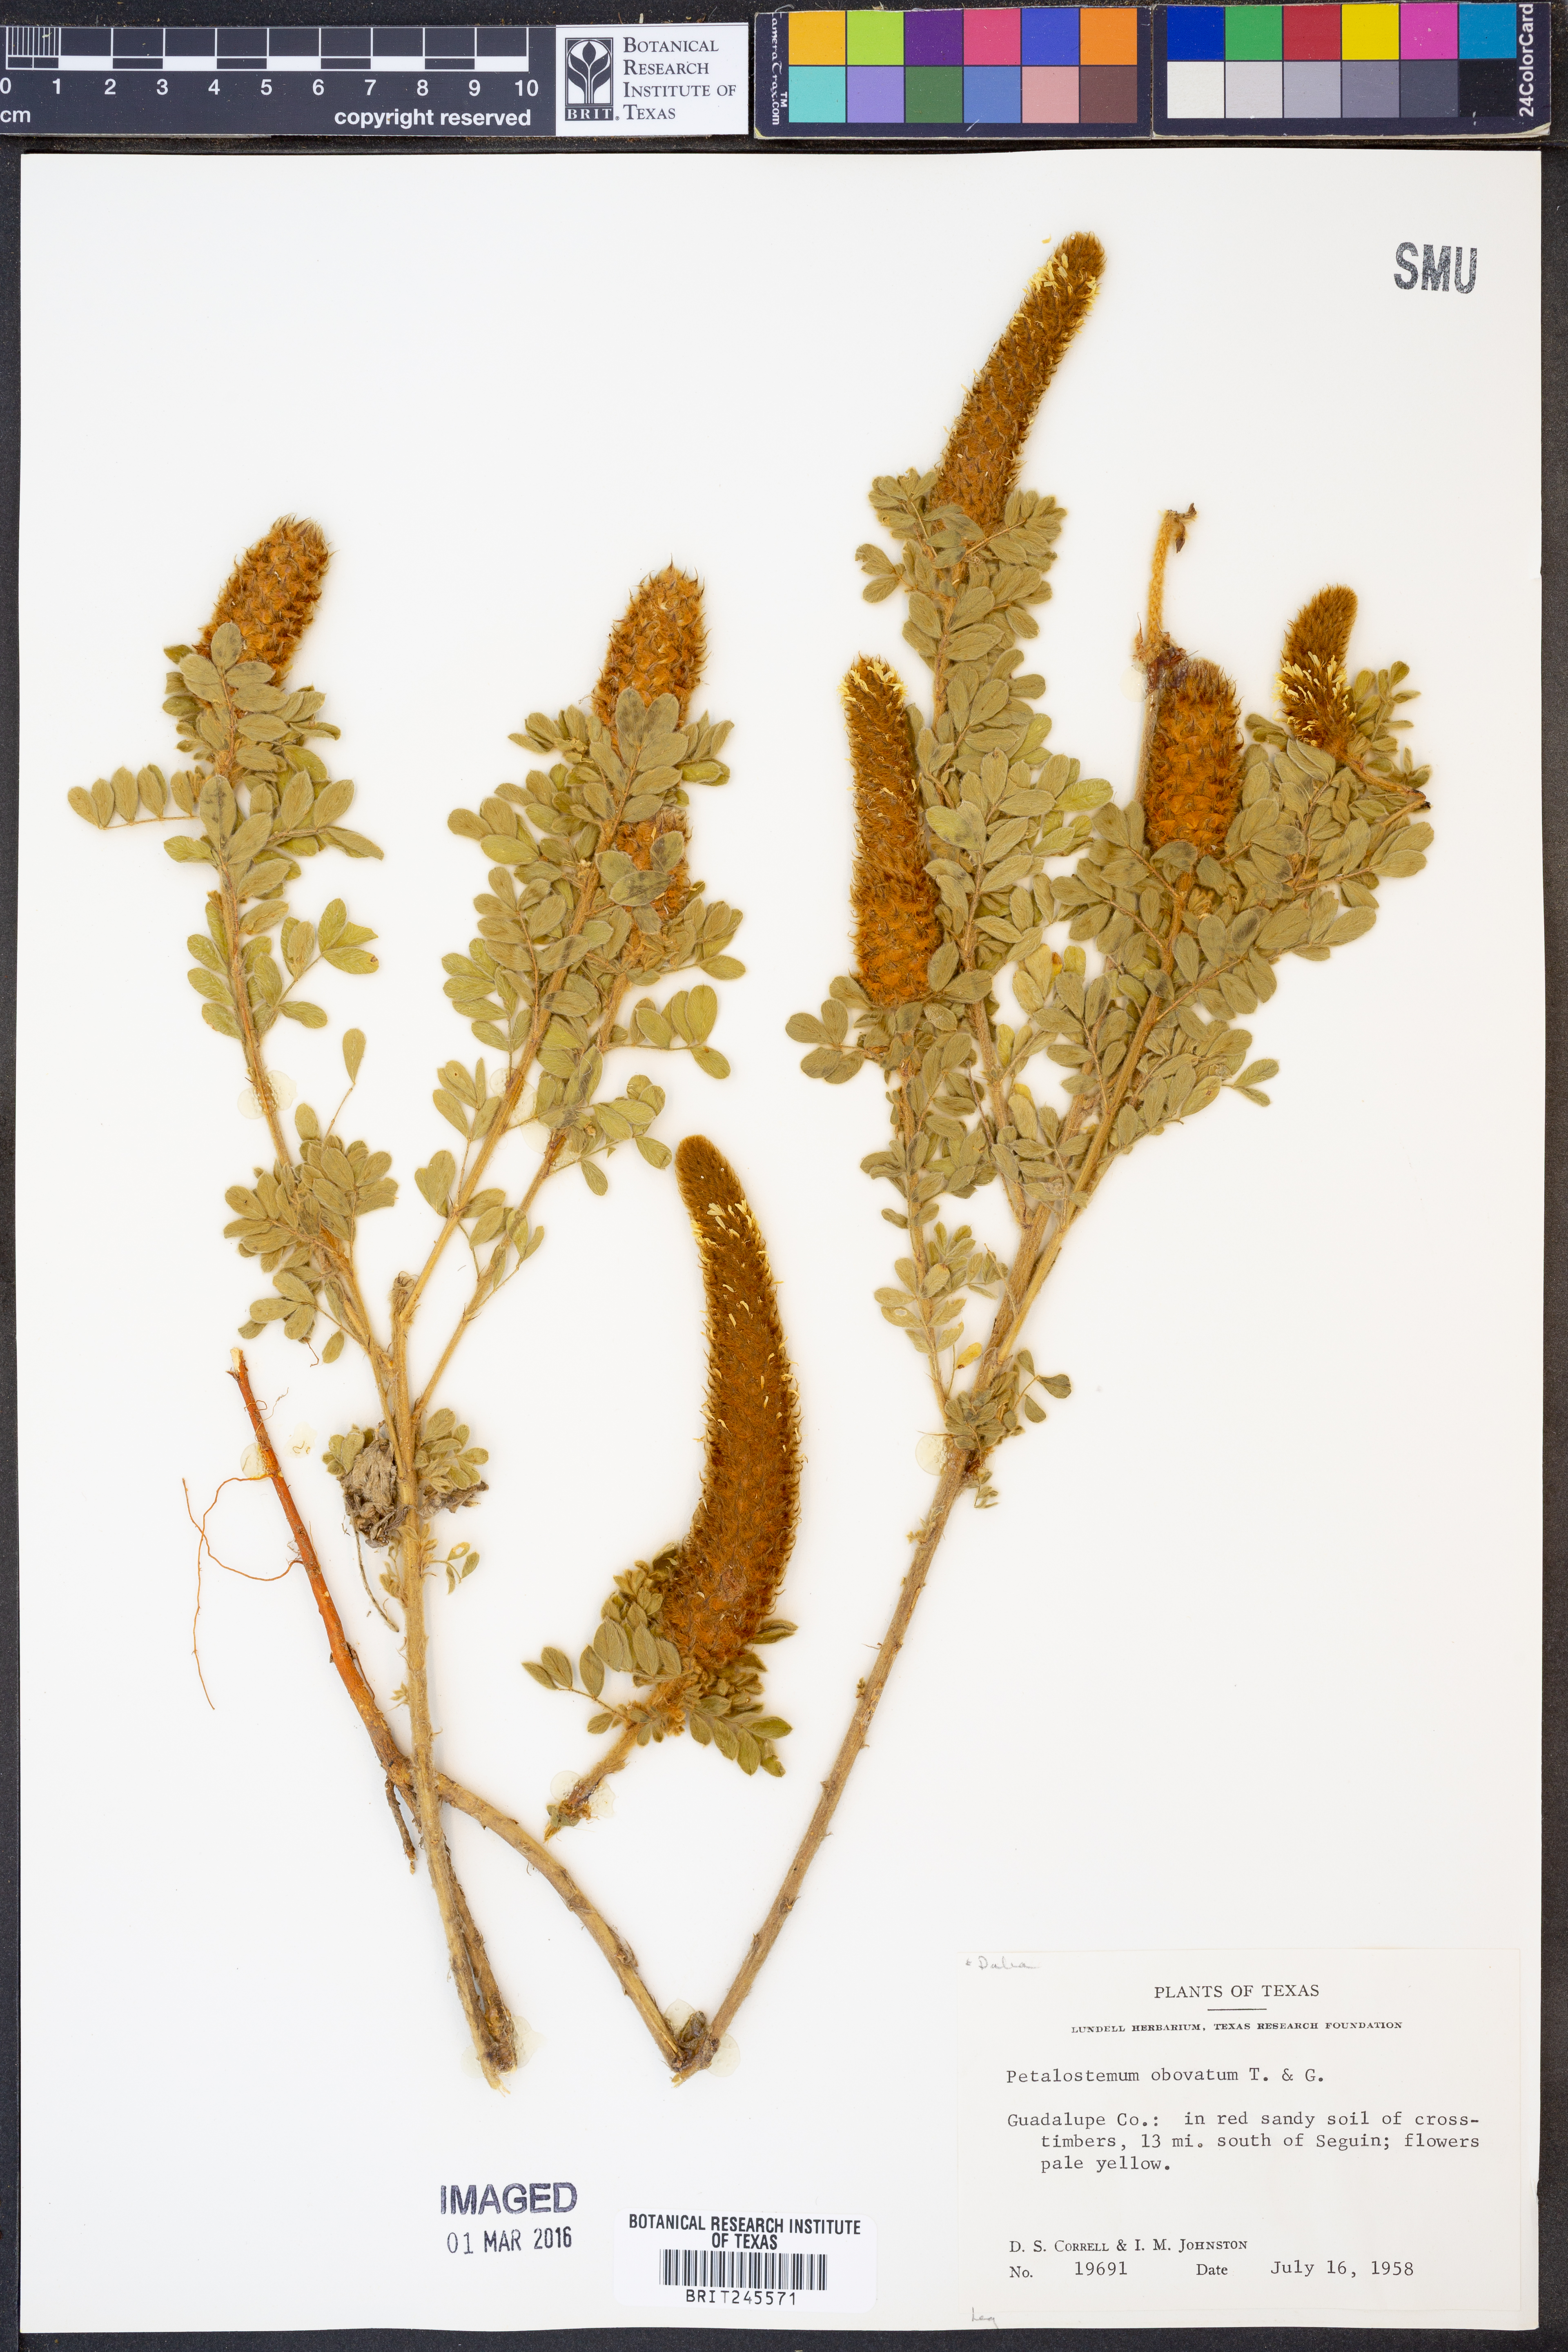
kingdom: Plantae
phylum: Tracheophyta
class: Magnoliopsida
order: Fabales
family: Fabaceae
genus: Dalea
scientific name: Dalea obovata
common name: Pussyfoot
